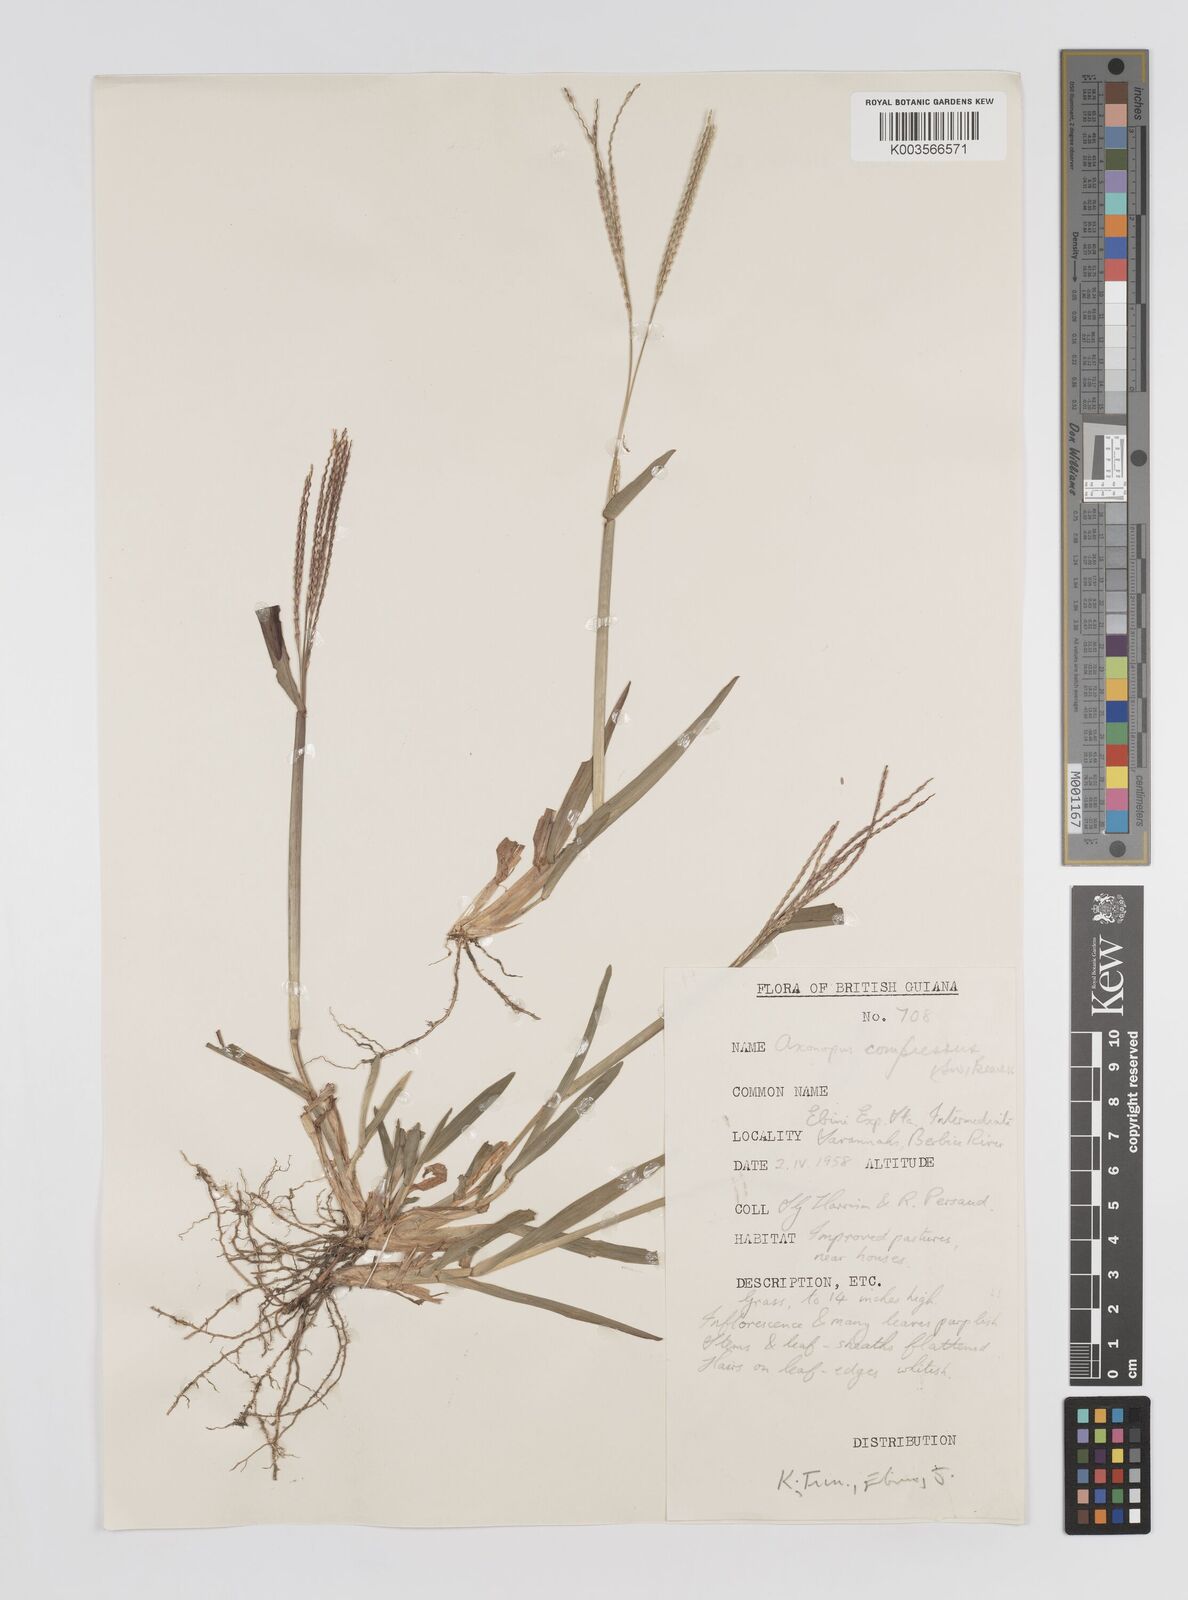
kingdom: Plantae
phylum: Tracheophyta
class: Liliopsida
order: Poales
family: Poaceae
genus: Axonopus
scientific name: Axonopus compressus
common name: American carpet grass
